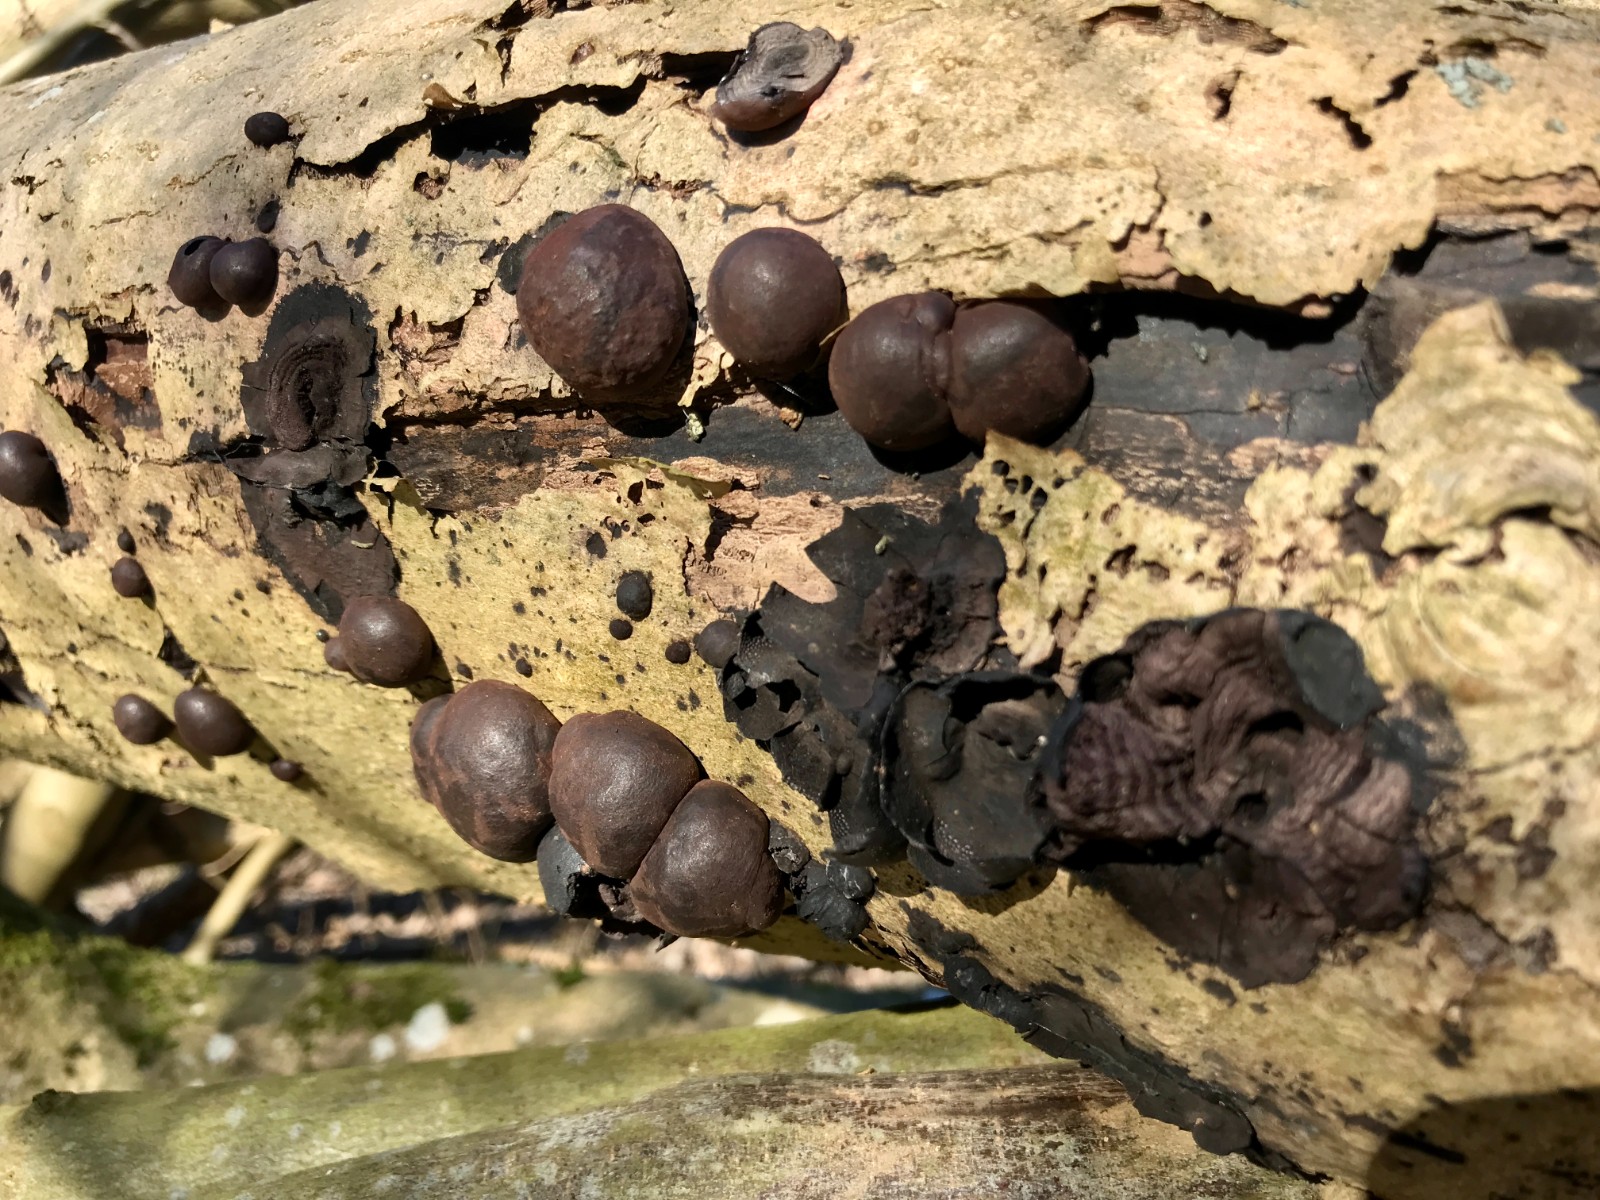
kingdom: Fungi
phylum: Ascomycota
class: Sordariomycetes
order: Xylariales
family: Hypoxylaceae
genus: Daldinia
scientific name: Daldinia concentrica
